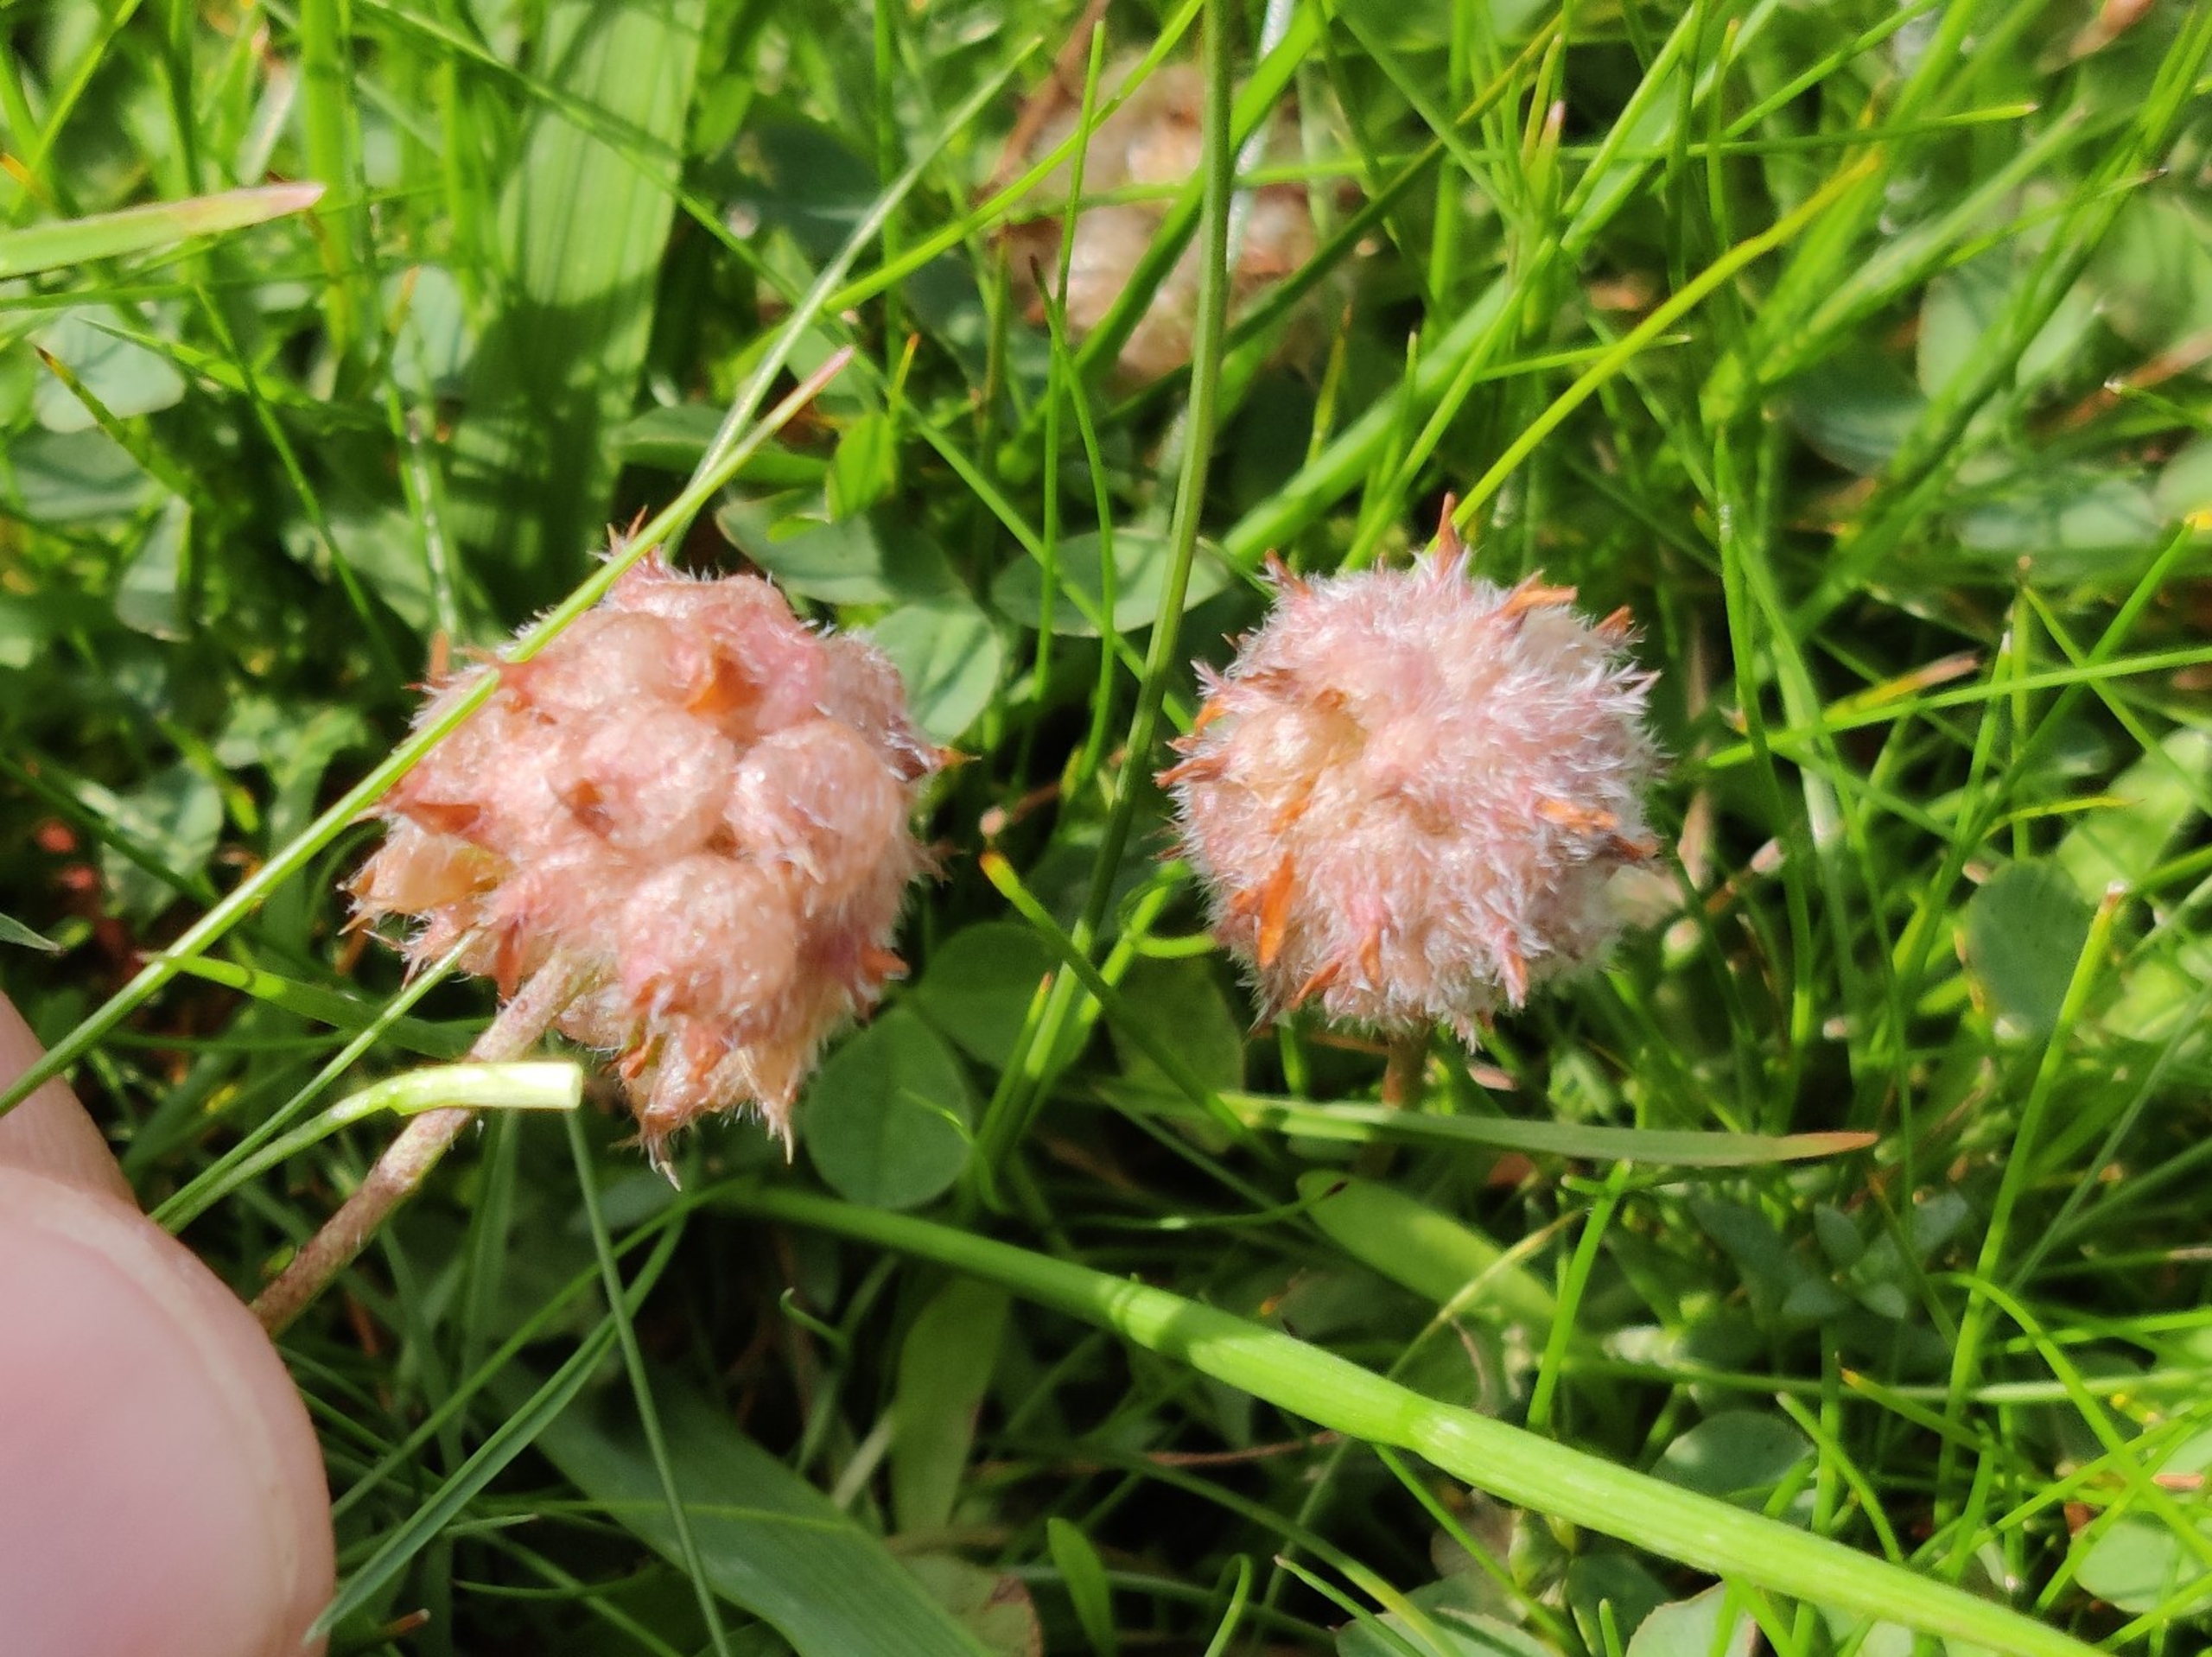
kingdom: Plantae
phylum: Tracheophyta
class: Magnoliopsida
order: Fabales
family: Fabaceae
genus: Trifolium
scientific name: Trifolium fragiferum
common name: Jordbær-kløver
